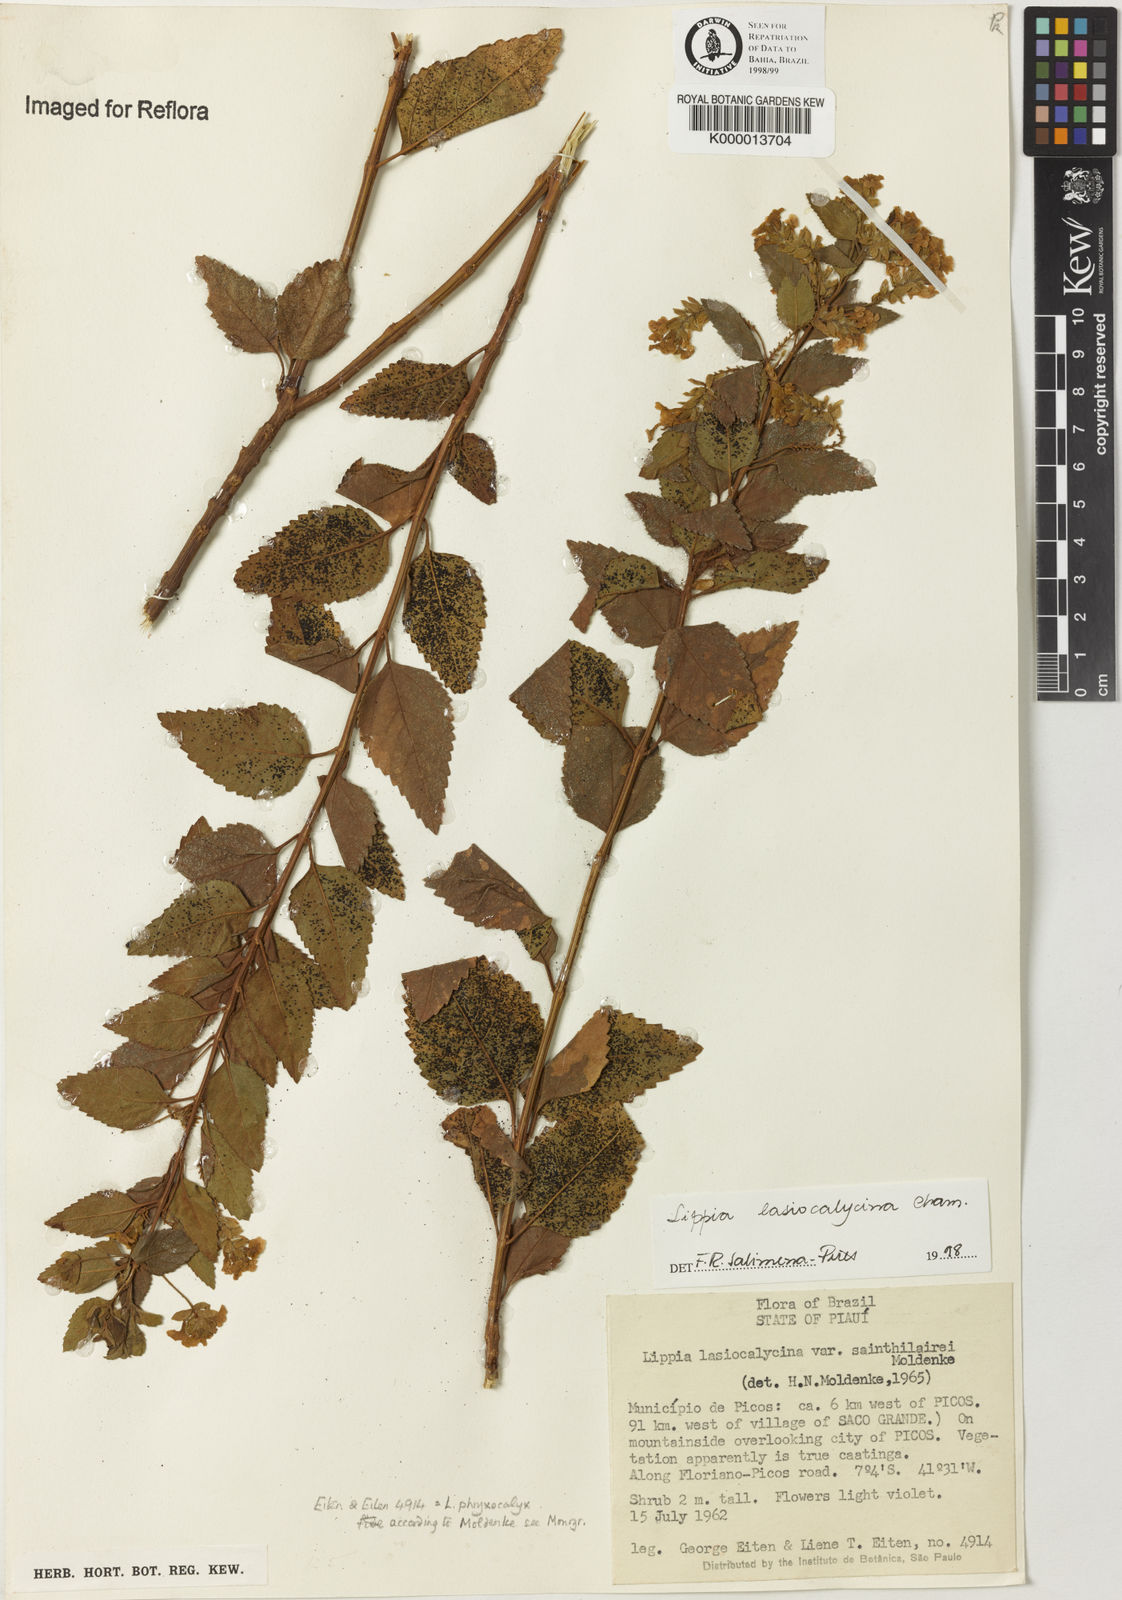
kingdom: Plantae
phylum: Tracheophyta
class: Magnoliopsida
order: Lamiales
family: Verbenaceae
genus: Lippia
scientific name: Lippia lasiocalycina
